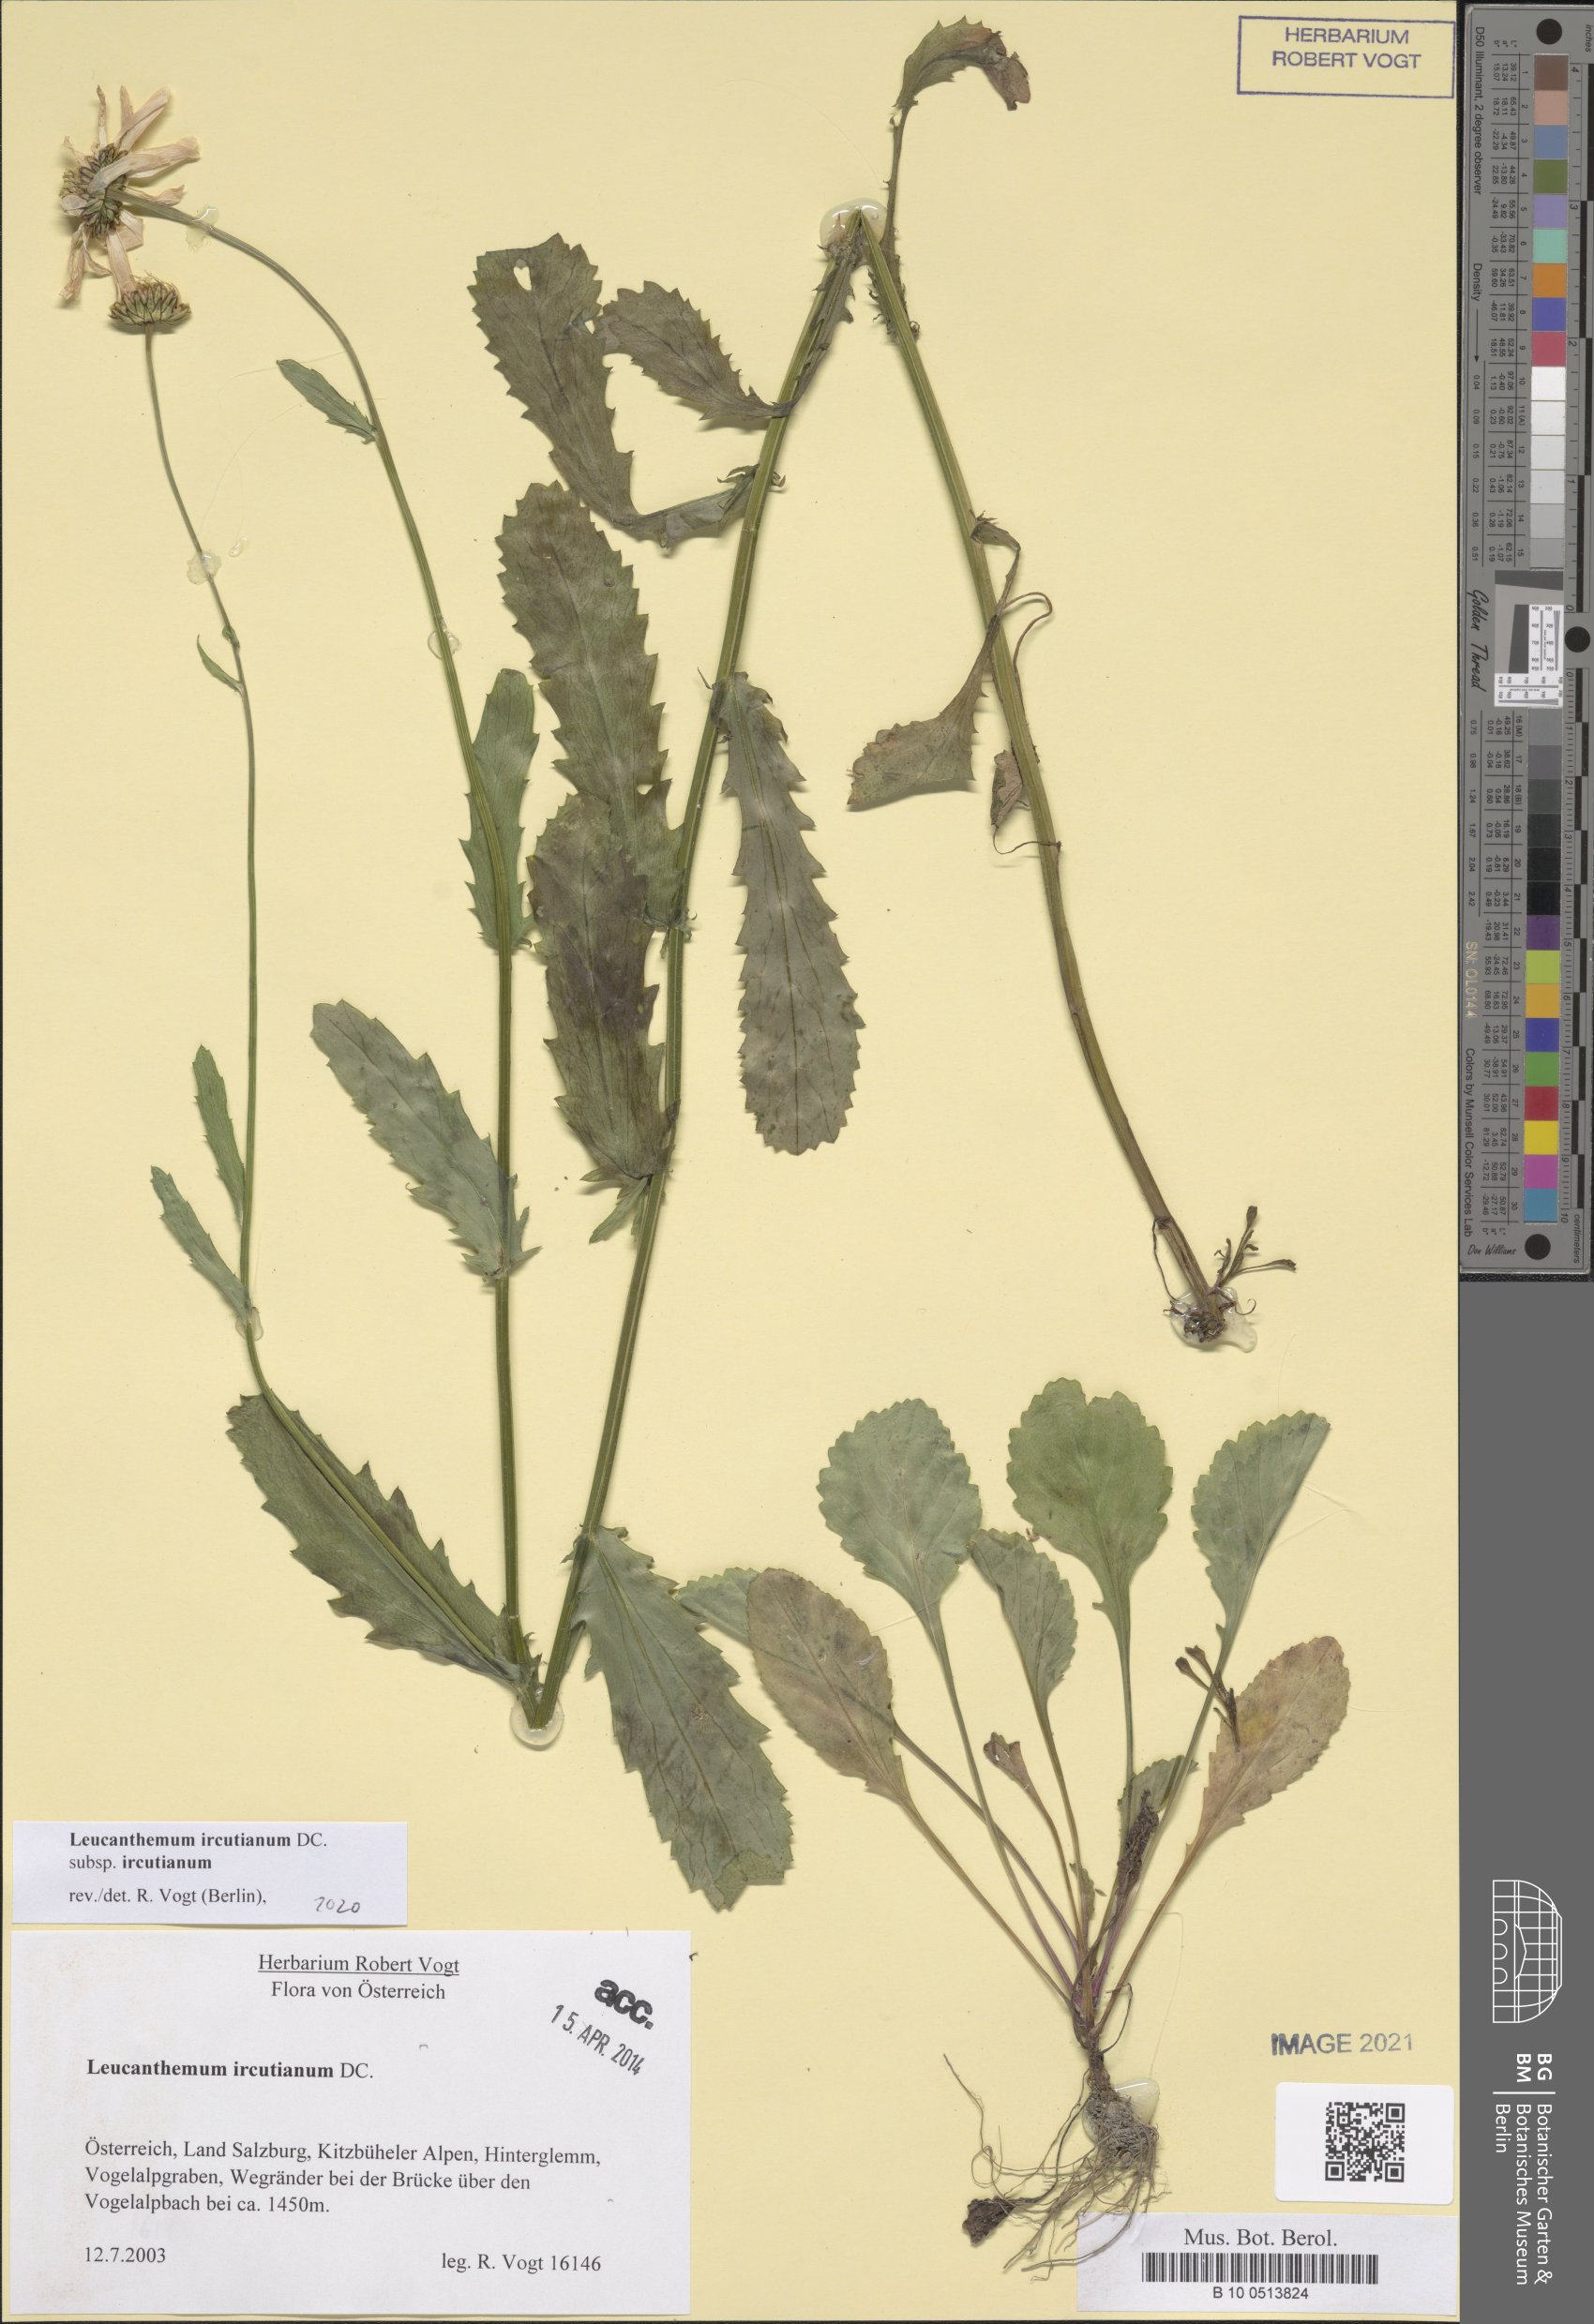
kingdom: Plantae
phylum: Tracheophyta
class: Magnoliopsida
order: Asterales
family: Asteraceae
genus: Leucanthemum
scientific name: Leucanthemum ircutianum
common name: Daisy
